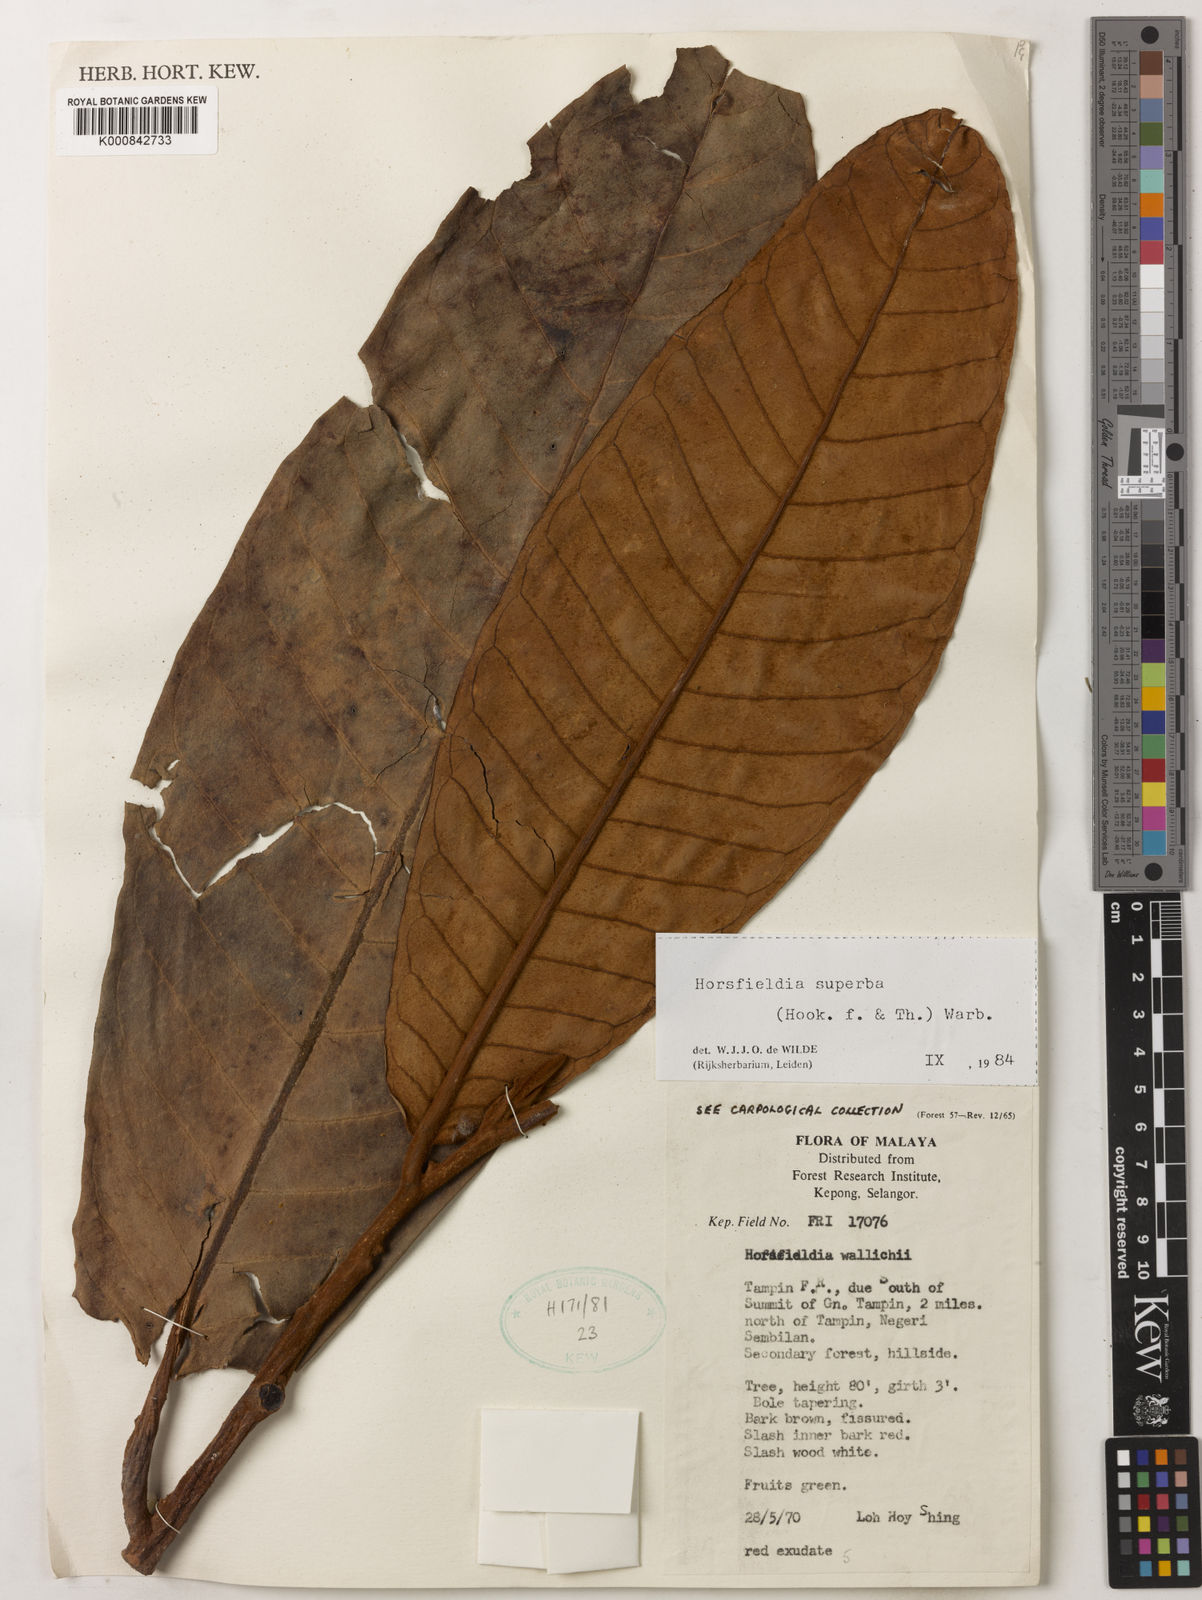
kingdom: Plantae
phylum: Tracheophyta
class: Magnoliopsida
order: Magnoliales
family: Myristicaceae
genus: Horsfieldia
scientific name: Horsfieldia superba
